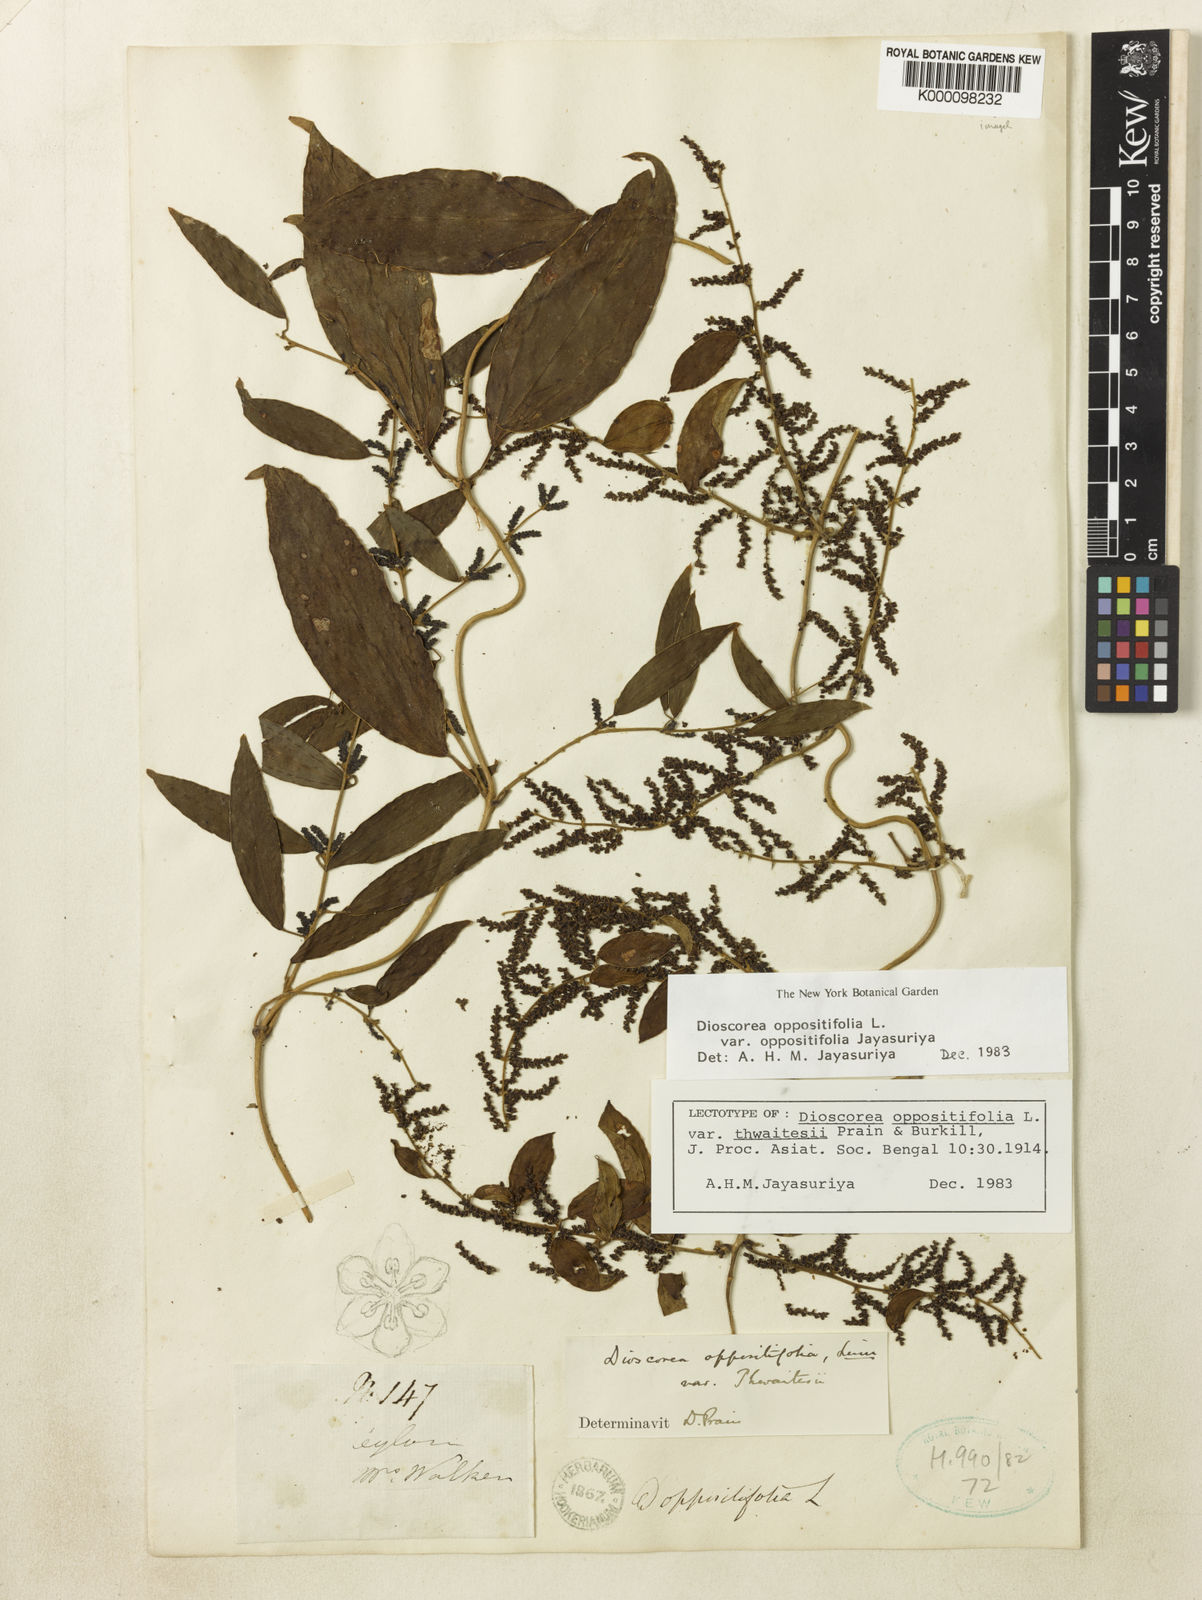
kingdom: Plantae
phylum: Tracheophyta
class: Liliopsida
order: Dioscoreales
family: Dioscoreaceae
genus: Dioscorea
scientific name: Dioscorea oppositifolia
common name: Chinese yam
